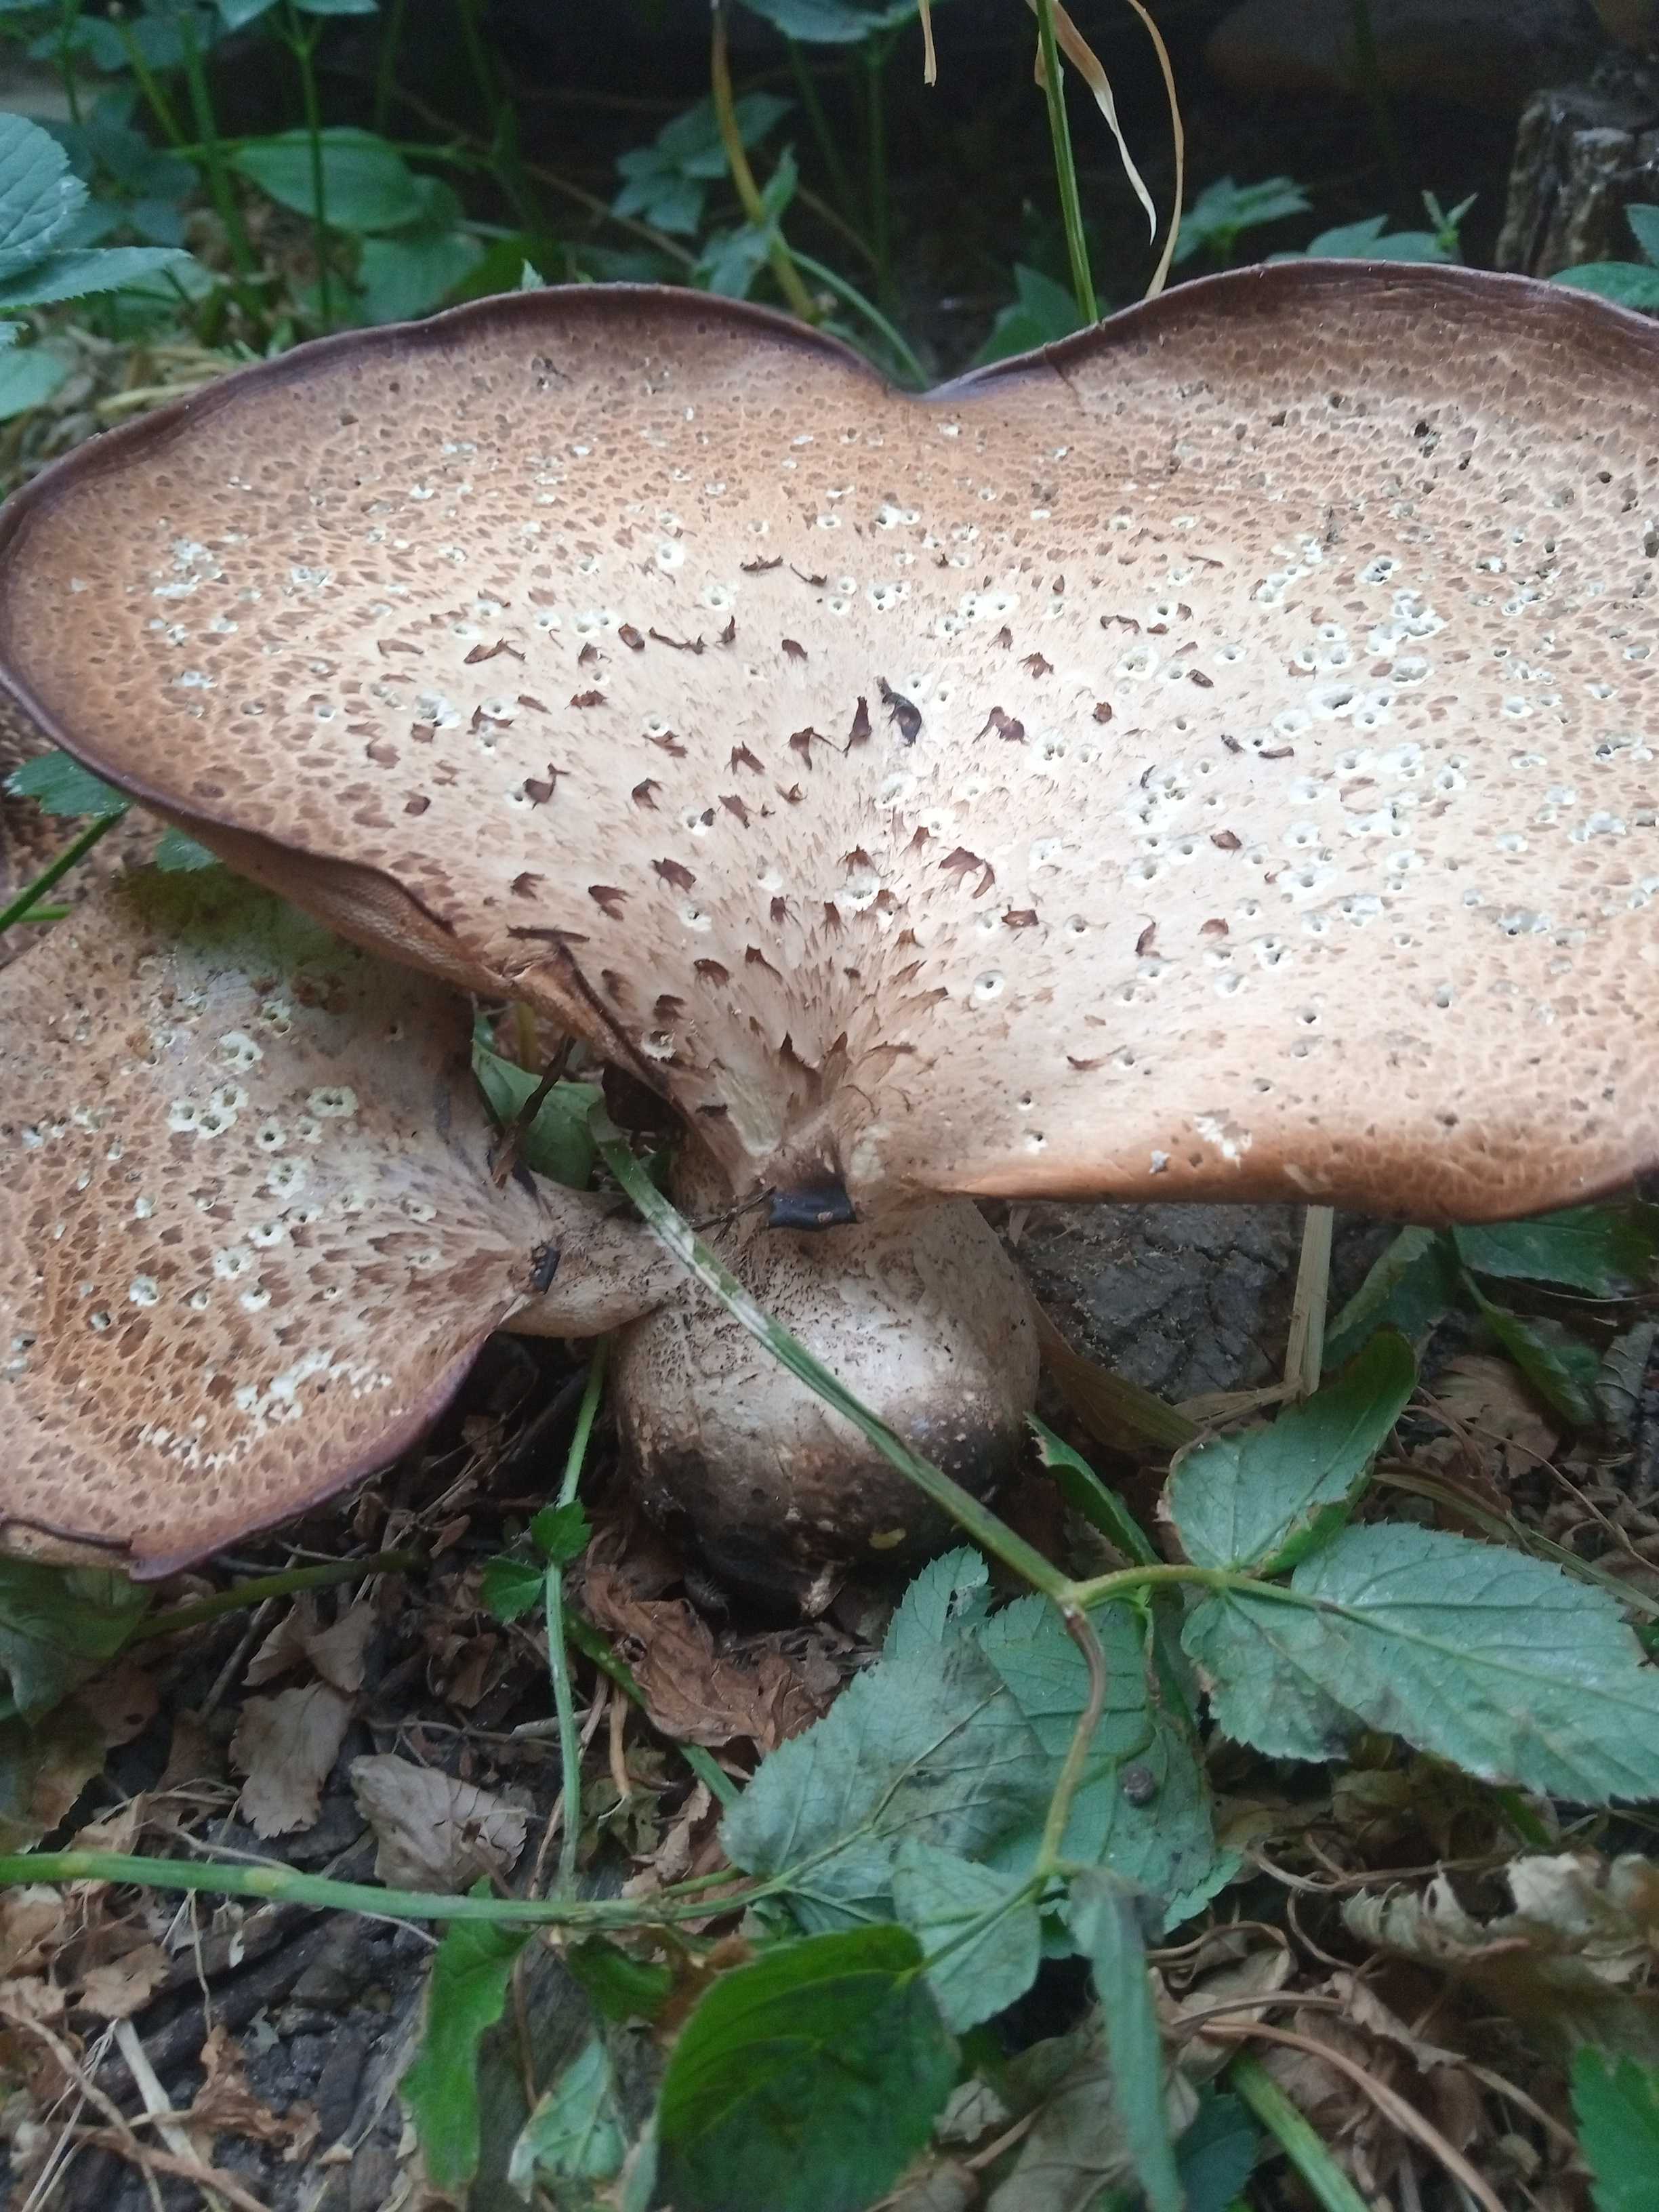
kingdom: Fungi
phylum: Basidiomycota
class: Agaricomycetes
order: Polyporales
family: Polyporaceae
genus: Cerioporus
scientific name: Cerioporus squamosus
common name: skællet stilkporesvamp
